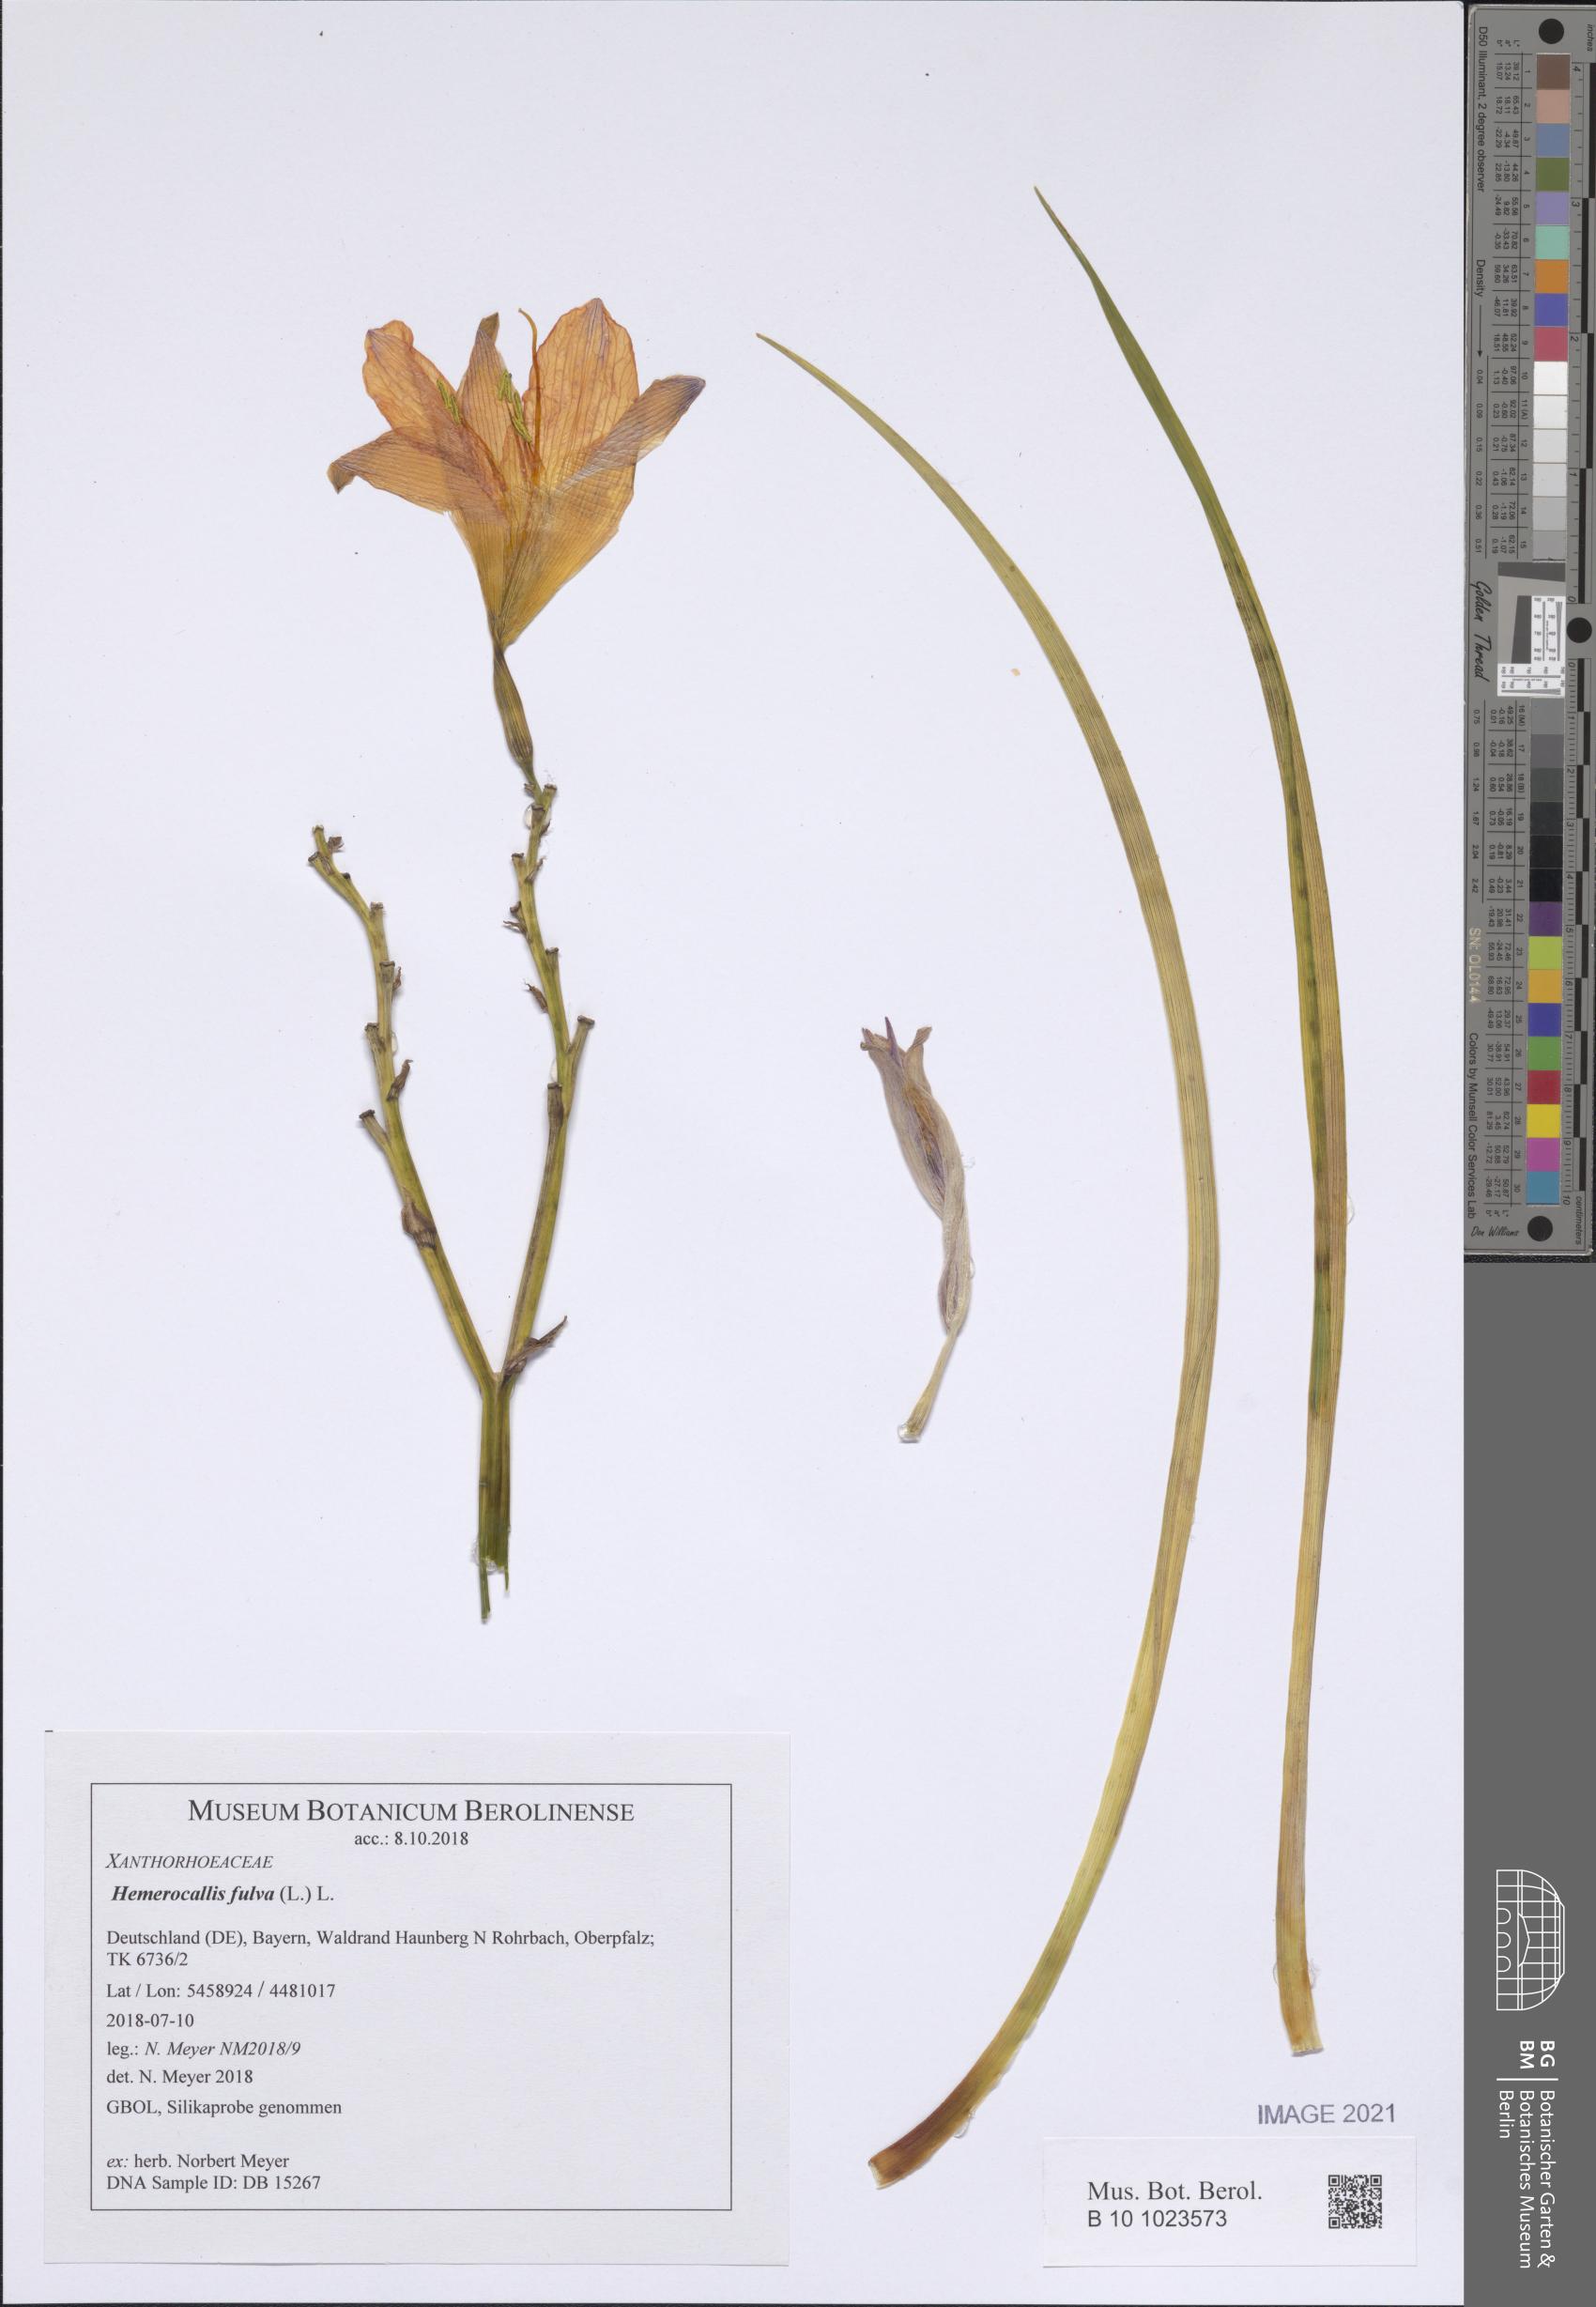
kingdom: Plantae
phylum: Tracheophyta
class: Liliopsida
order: Asparagales
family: Asphodelaceae
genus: Hemerocallis
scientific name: Hemerocallis fulva
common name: Orange day-lily
